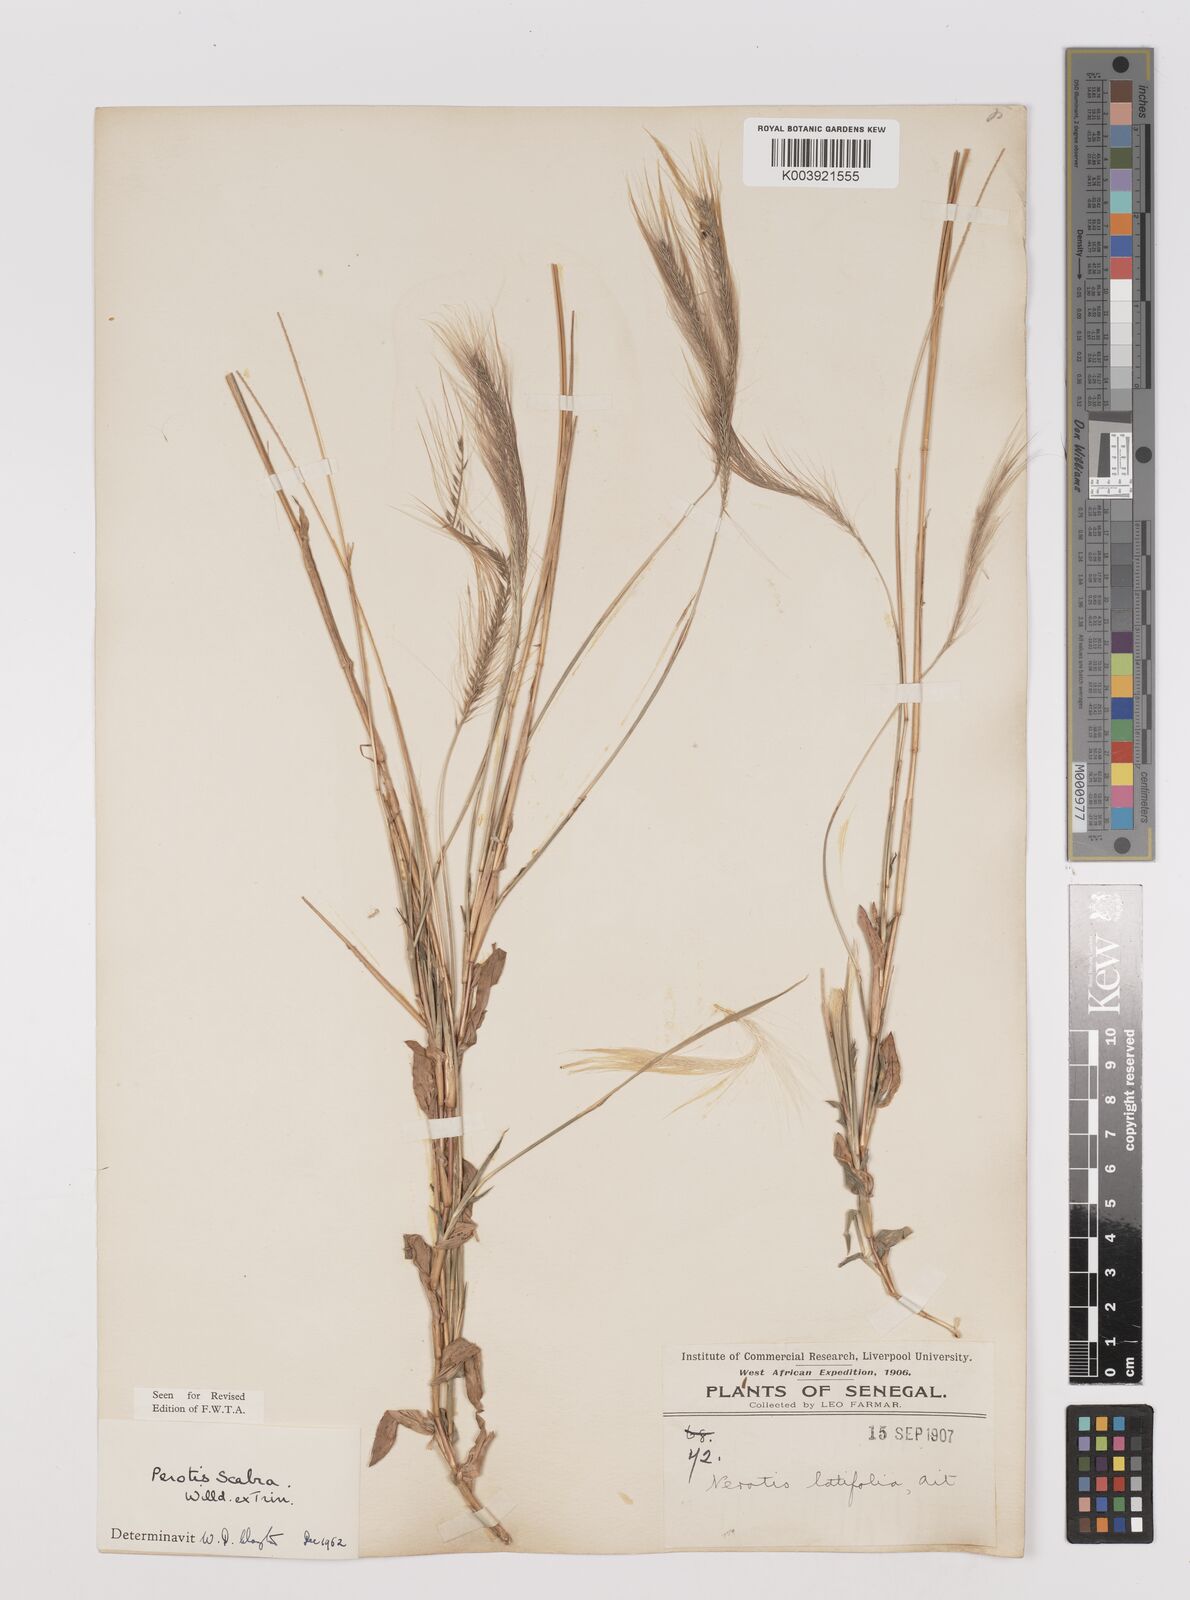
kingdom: Plantae
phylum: Tracheophyta
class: Liliopsida
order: Poales
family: Poaceae
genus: Perotis
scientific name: Perotis scabra
